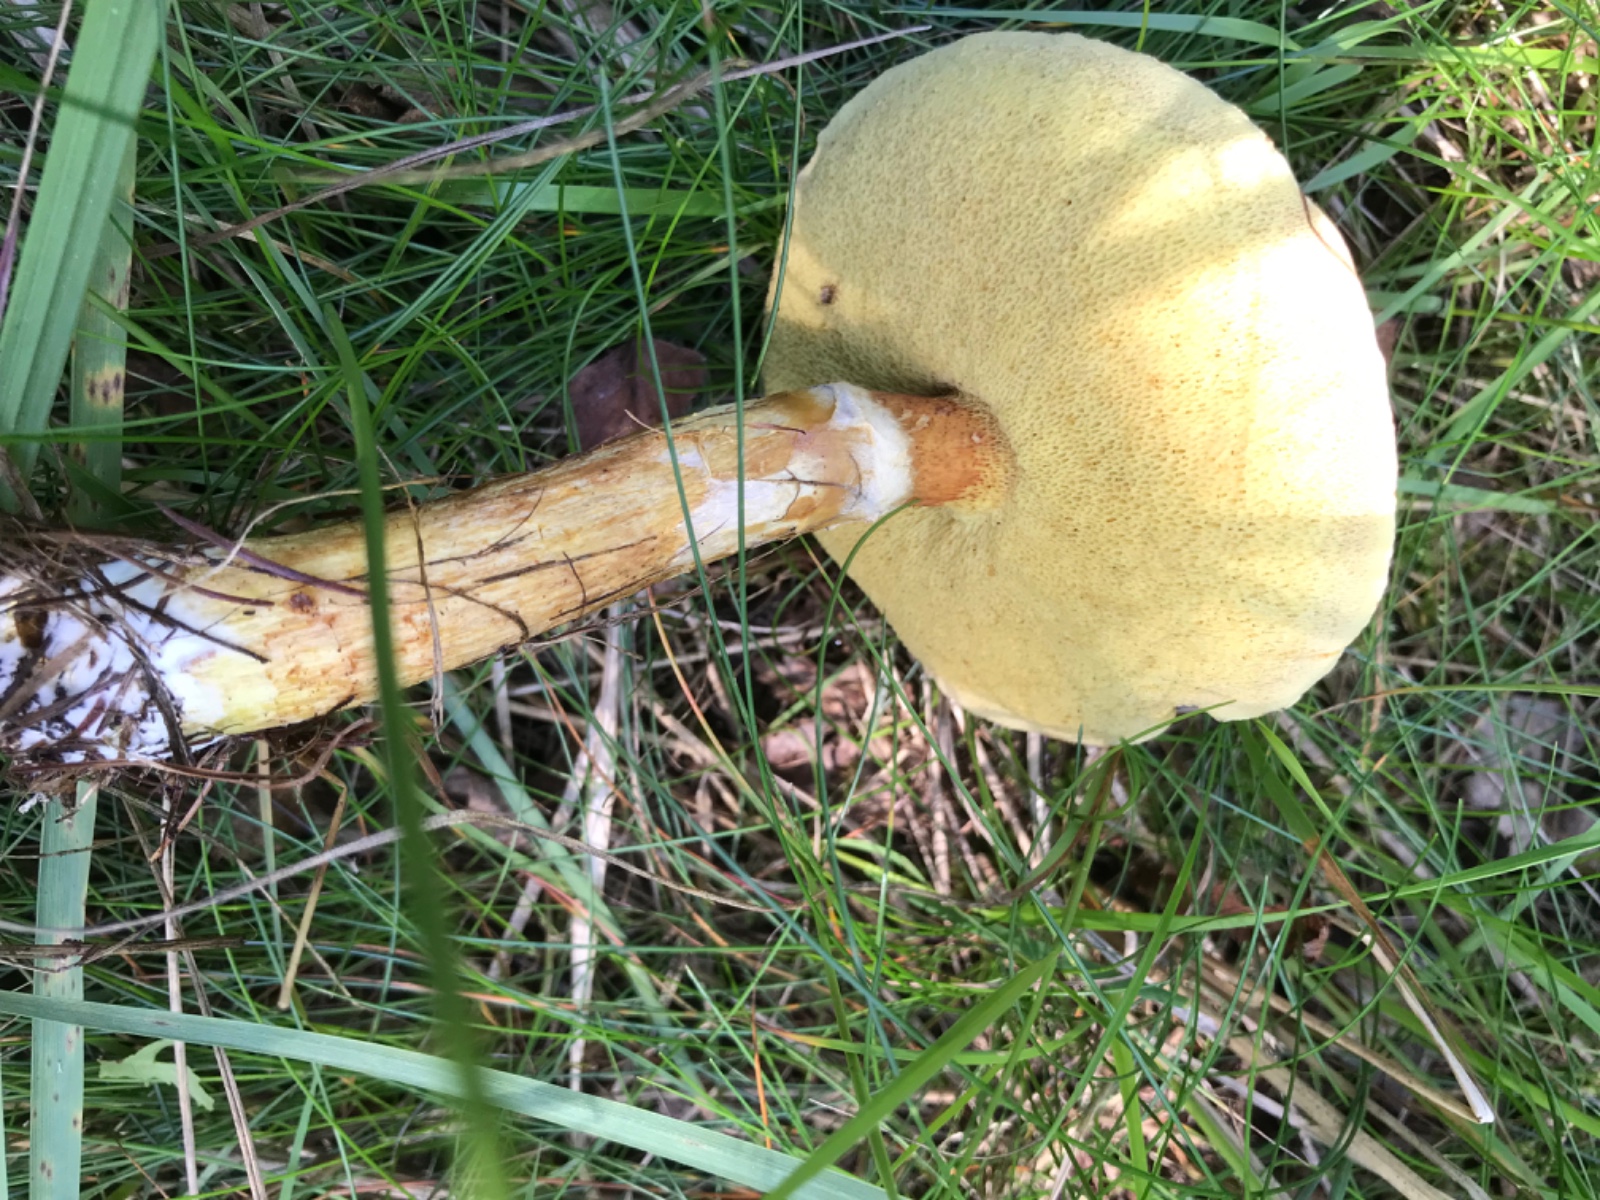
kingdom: Fungi
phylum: Basidiomycota
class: Agaricomycetes
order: Boletales
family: Suillaceae
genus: Suillus
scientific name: Suillus grevillei
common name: lærke-slimrørhat
